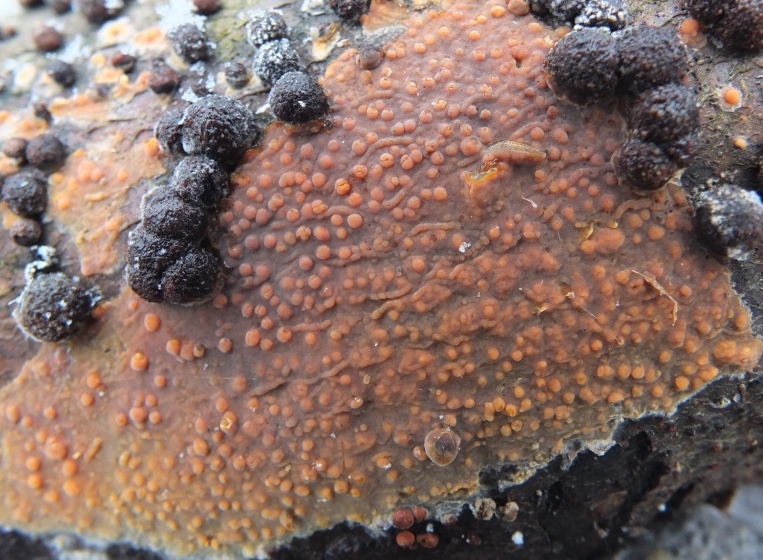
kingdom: Fungi
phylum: Basidiomycota
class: Agaricomycetes
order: Russulales
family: Peniophoraceae
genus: Peniophora
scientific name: Peniophora incarnata
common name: laksefarvet voksskind
